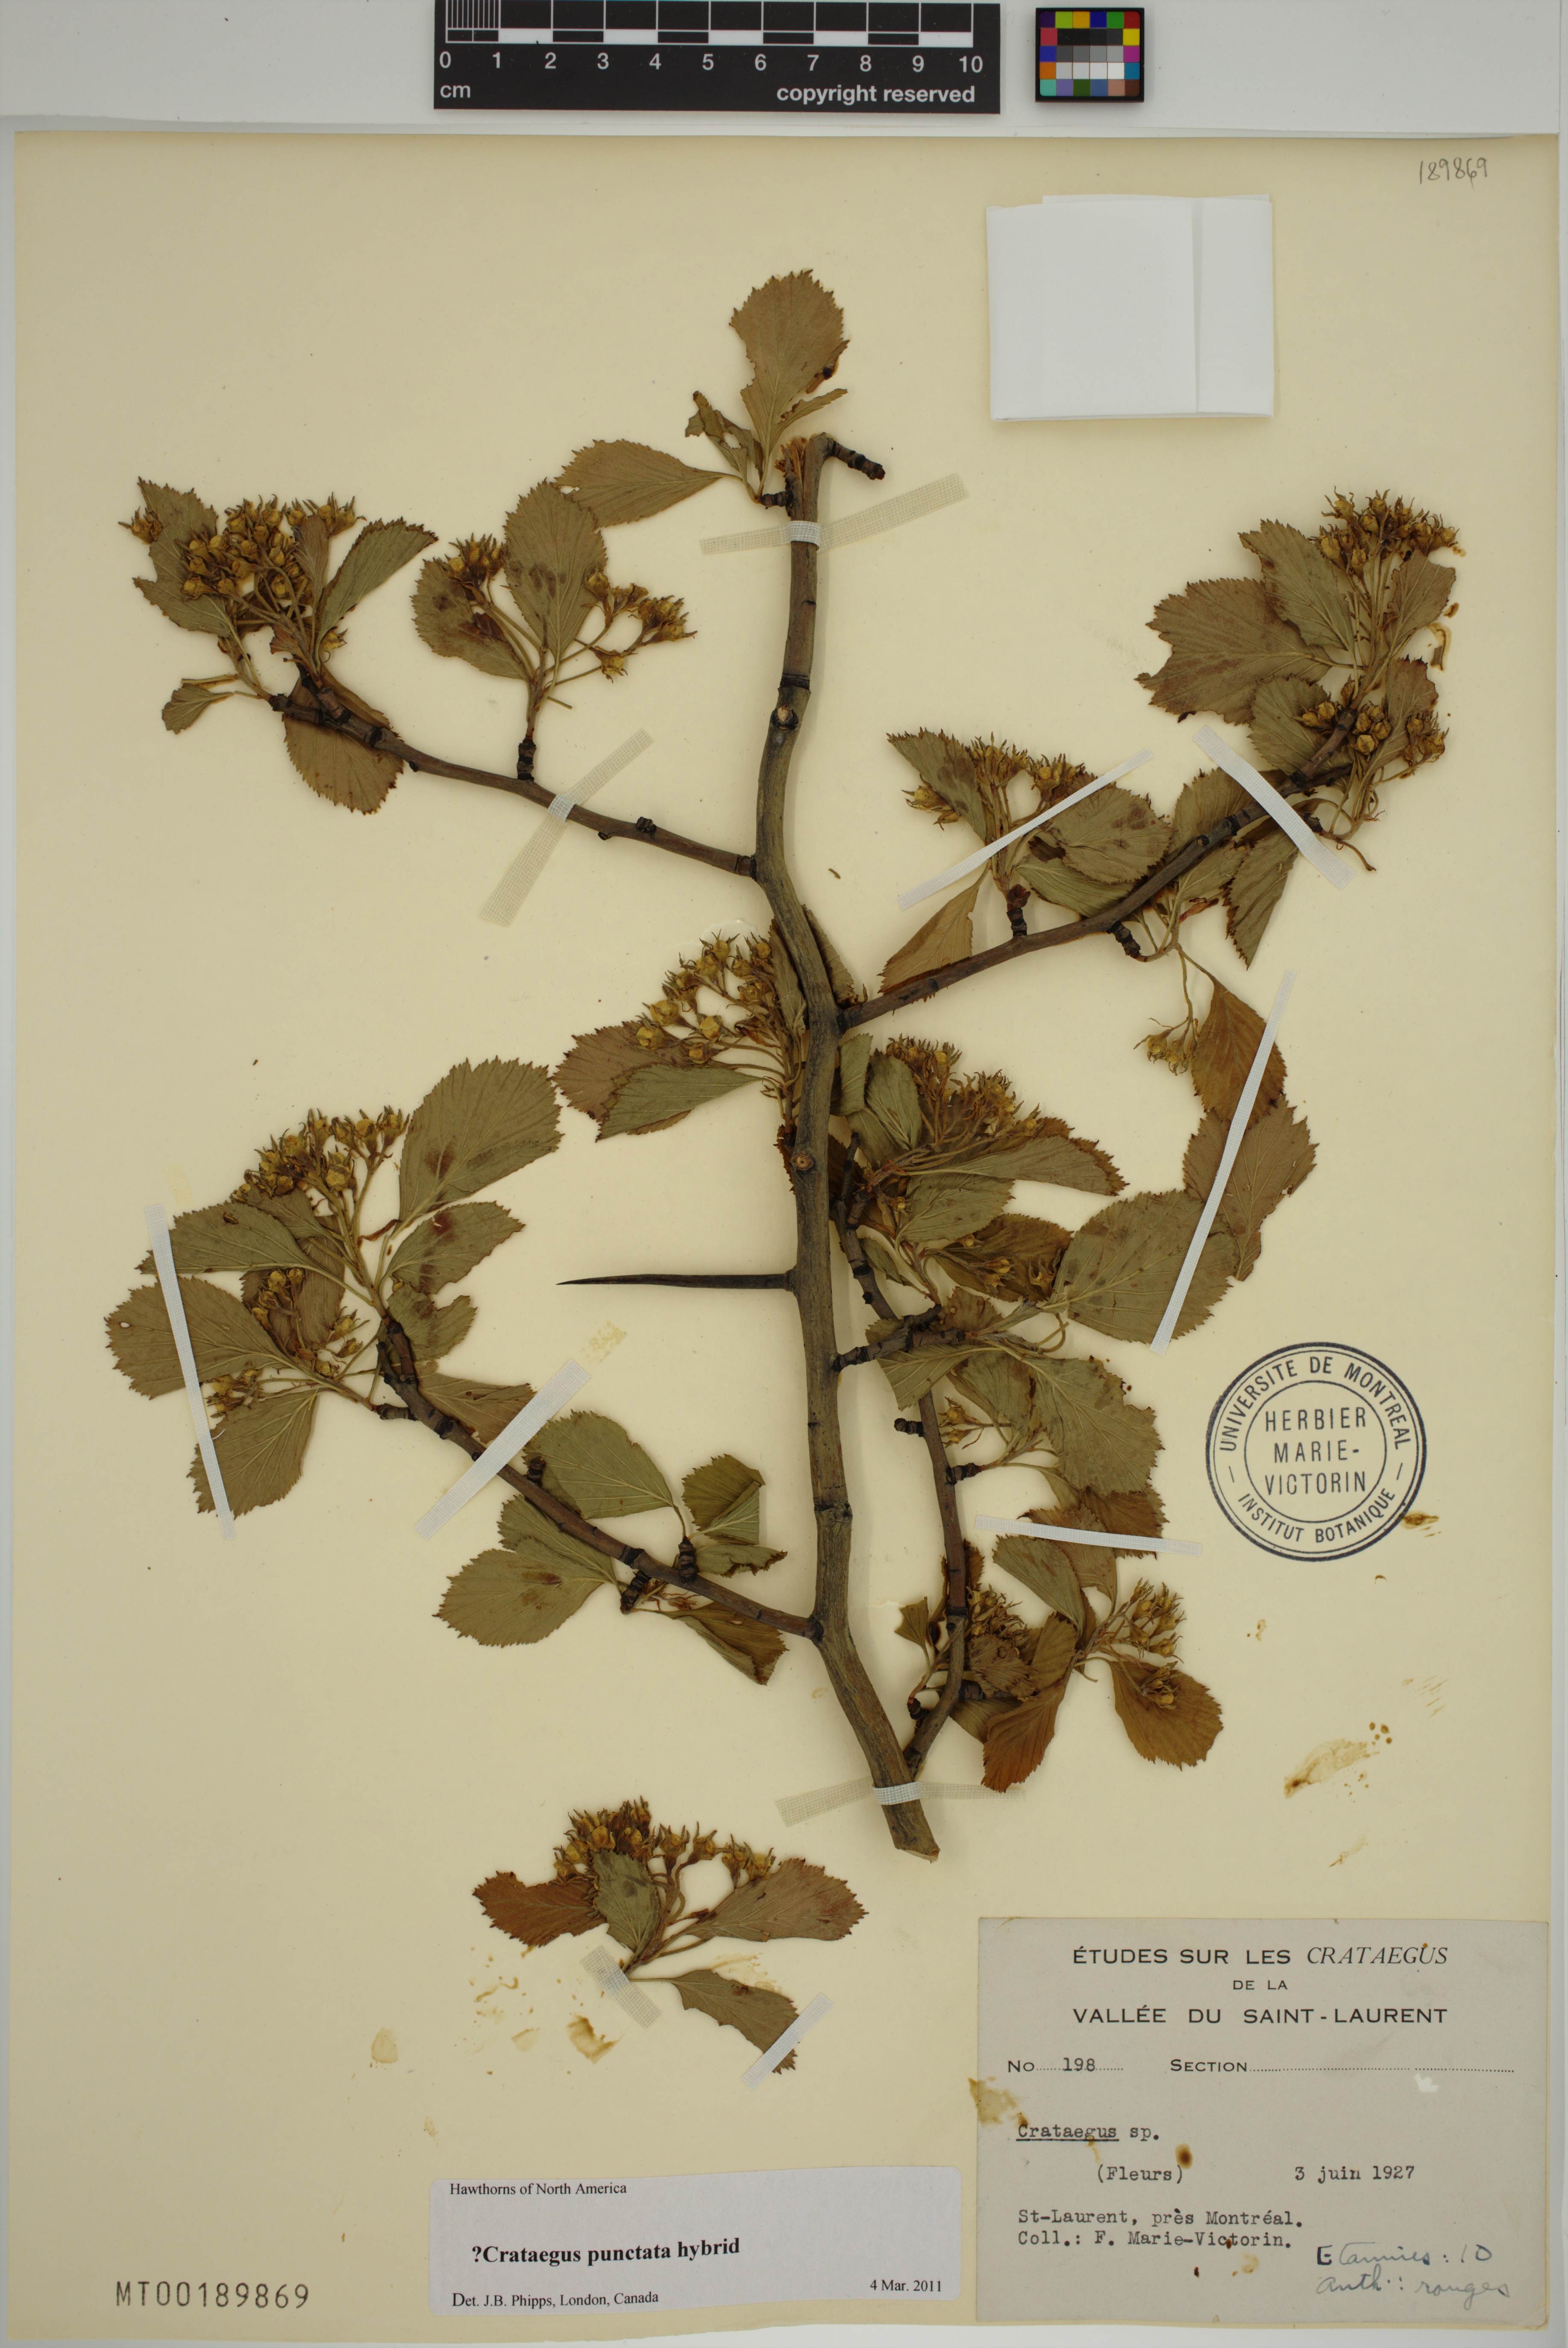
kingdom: Plantae
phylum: Tracheophyta
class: Magnoliopsida
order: Rosales
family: Rosaceae
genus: Crataegus
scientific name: Crataegus
